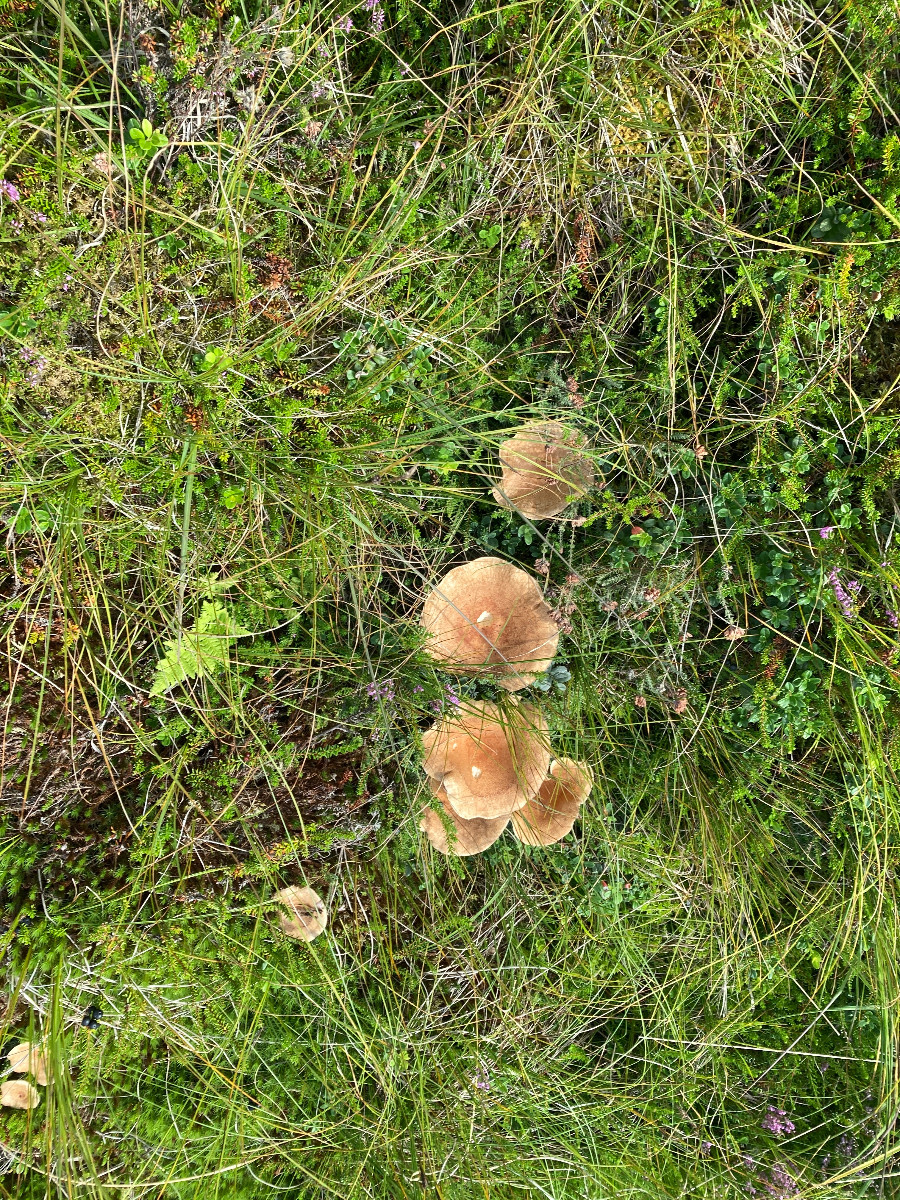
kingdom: Fungi
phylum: Basidiomycota
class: Agaricomycetes
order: Russulales
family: Russulaceae
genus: Lactarius
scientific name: Lactarius helvus
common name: mose-mælkehat
